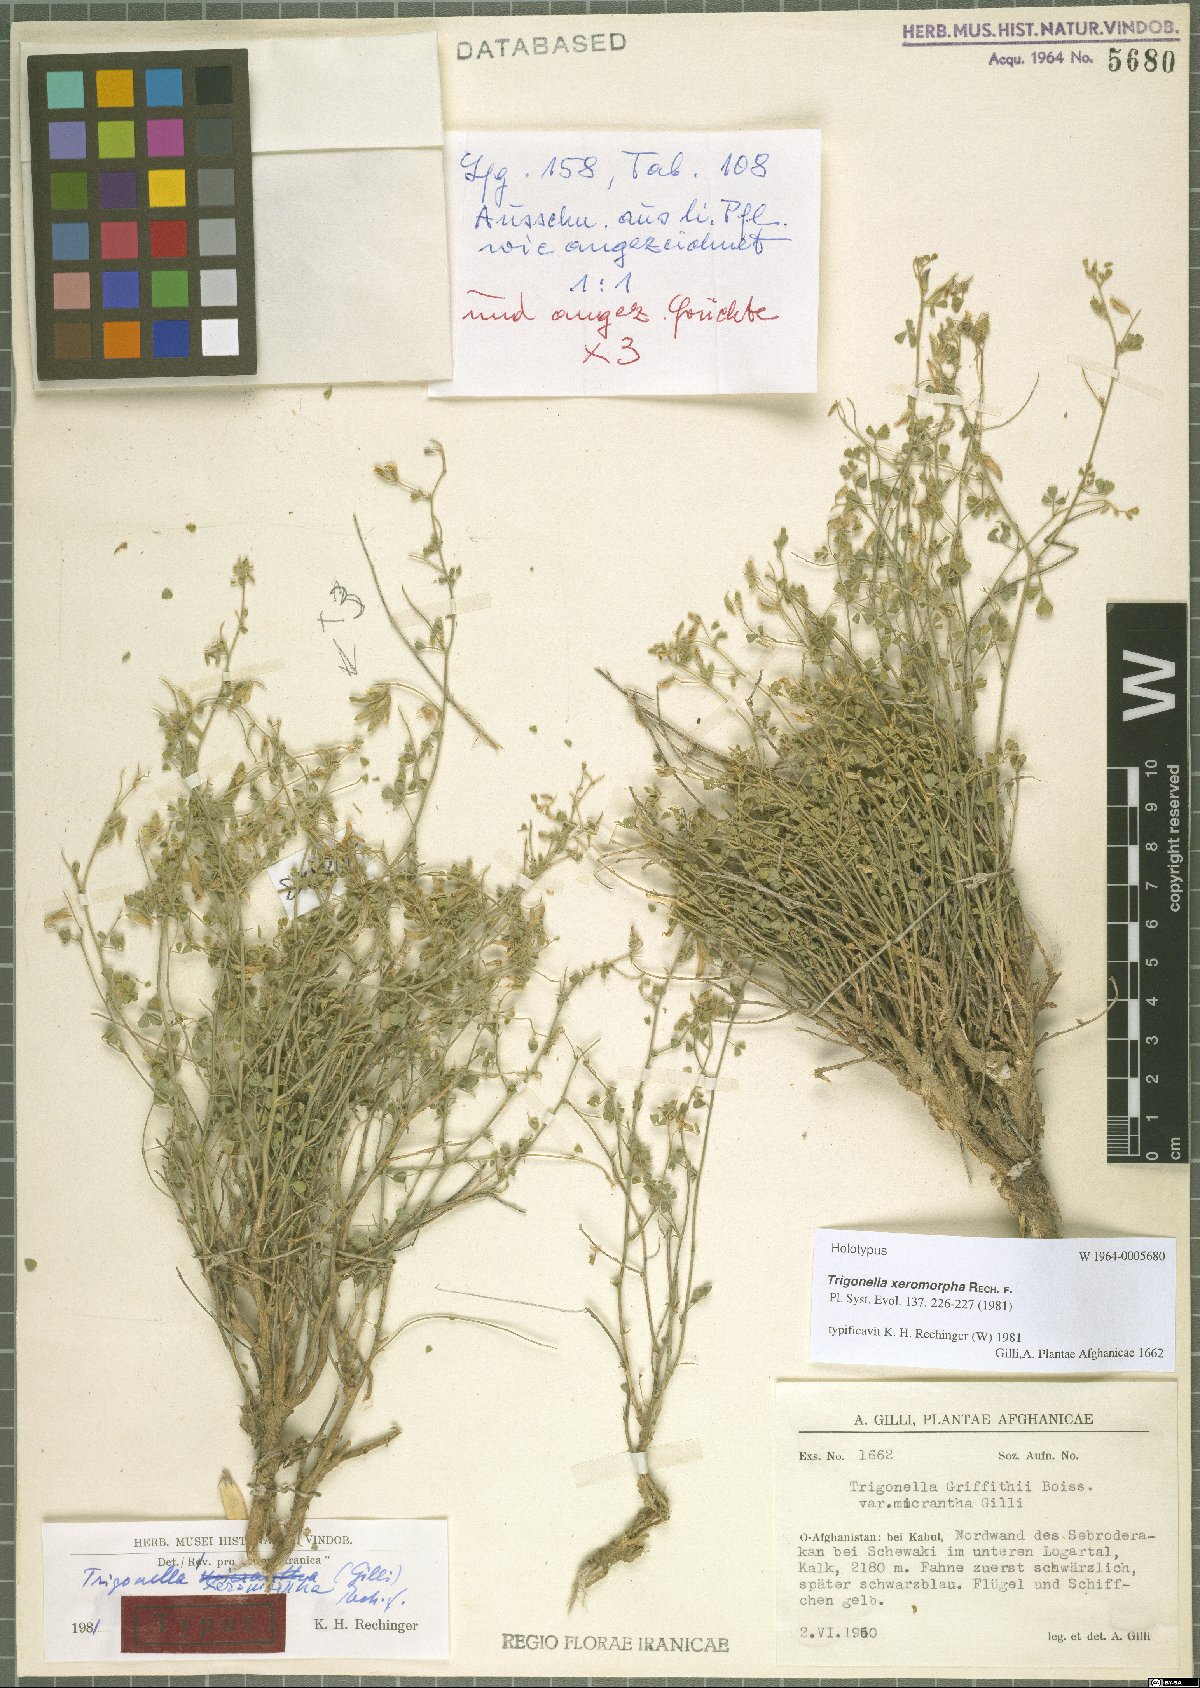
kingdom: Plantae
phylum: Tracheophyta
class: Magnoliopsida
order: Fabales
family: Fabaceae
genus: Trigonella
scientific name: Trigonella xeromorpha
